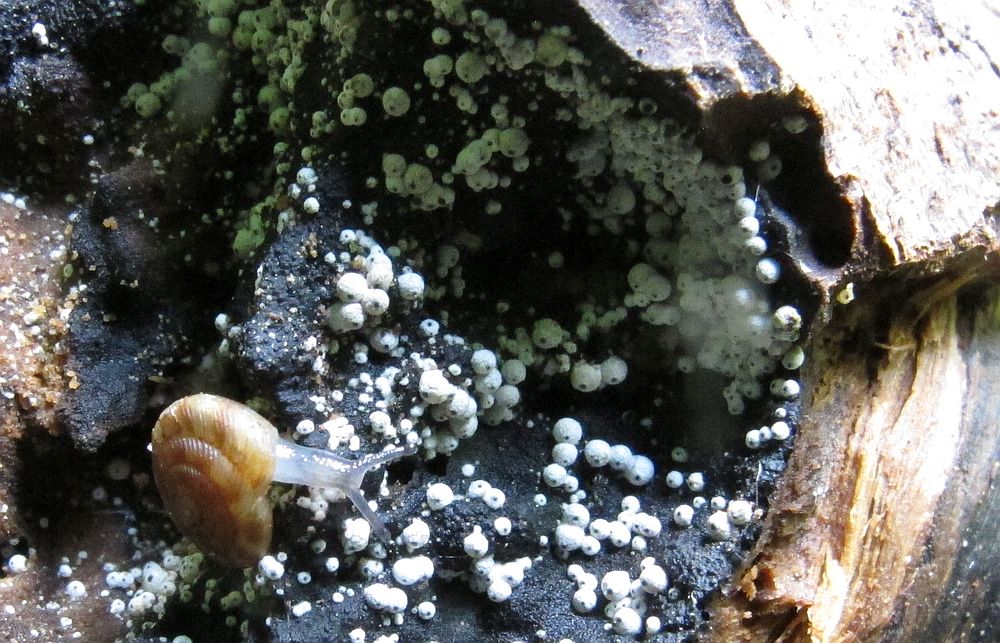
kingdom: Fungi
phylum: Ascomycota
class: Sordariomycetes
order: Sordariales
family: Lasiosphaeriaceae
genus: Lasiosphaeria
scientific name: Lasiosphaeria ovina
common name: fåre-kernesvamp
